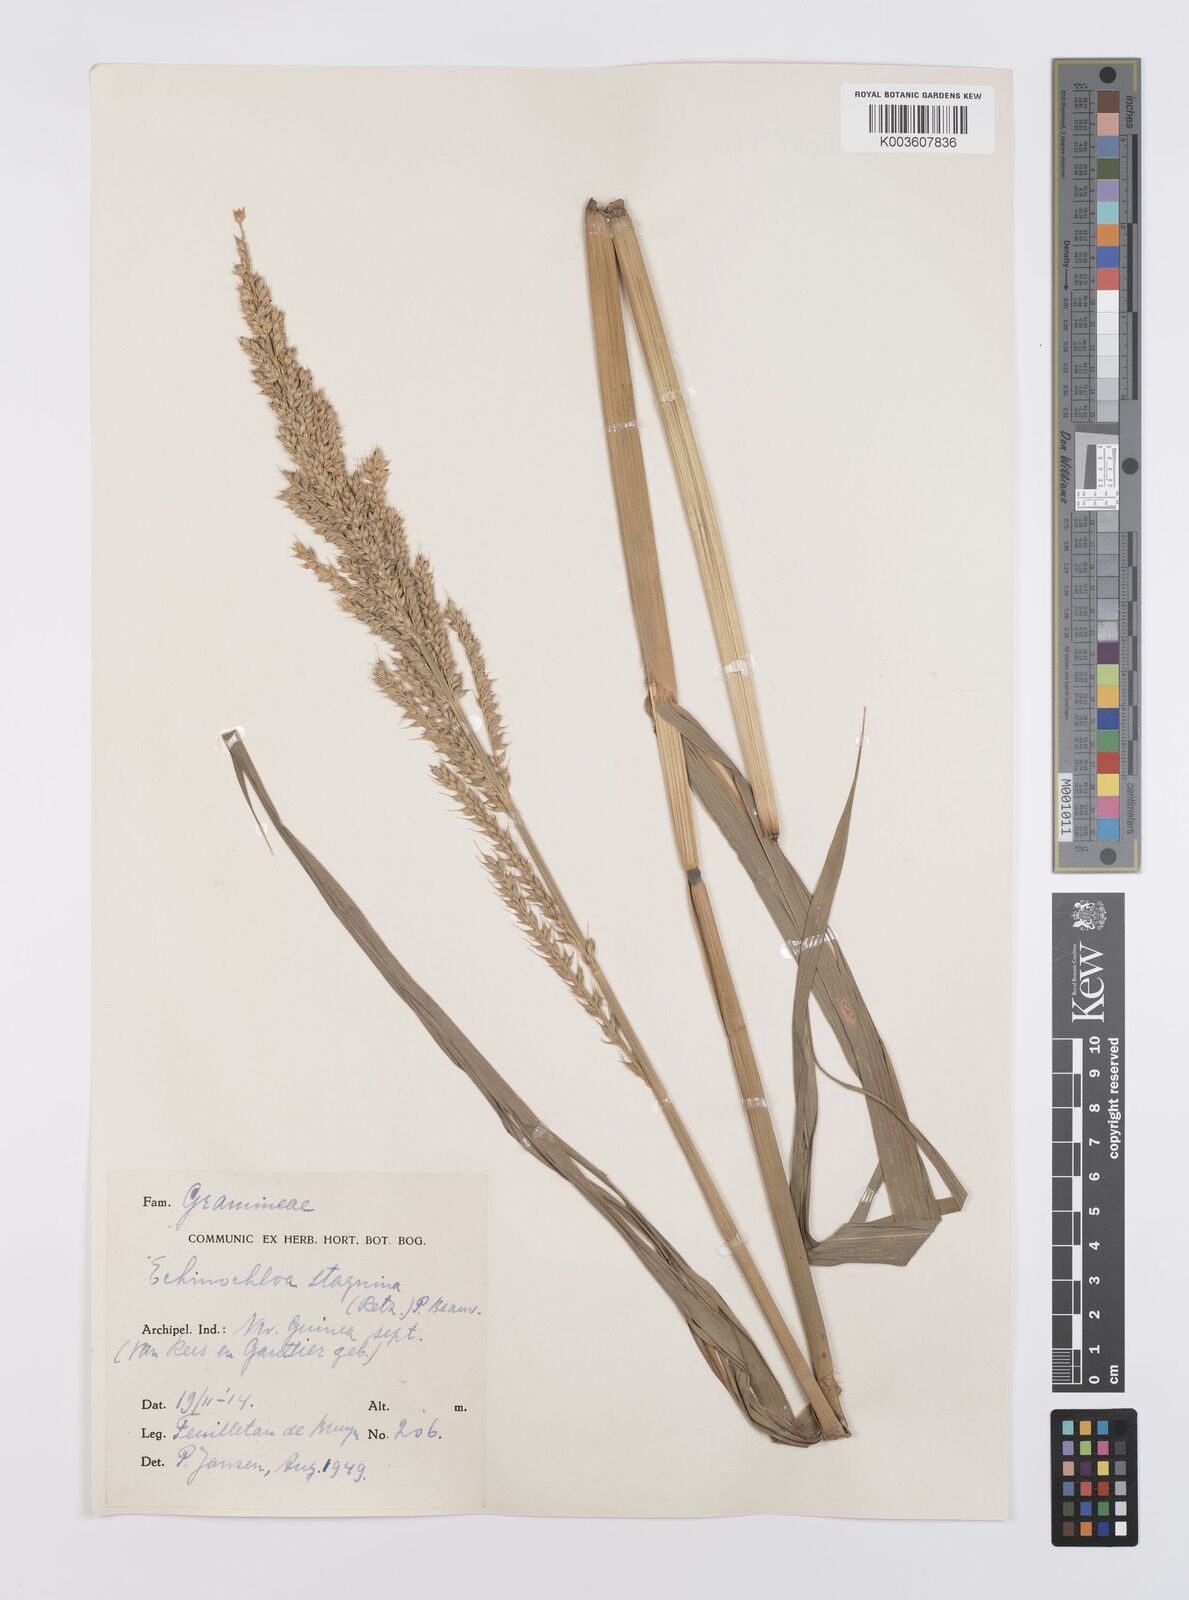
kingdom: Plantae
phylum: Tracheophyta
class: Liliopsida
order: Poales
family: Poaceae
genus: Echinochloa
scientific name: Echinochloa praestans
